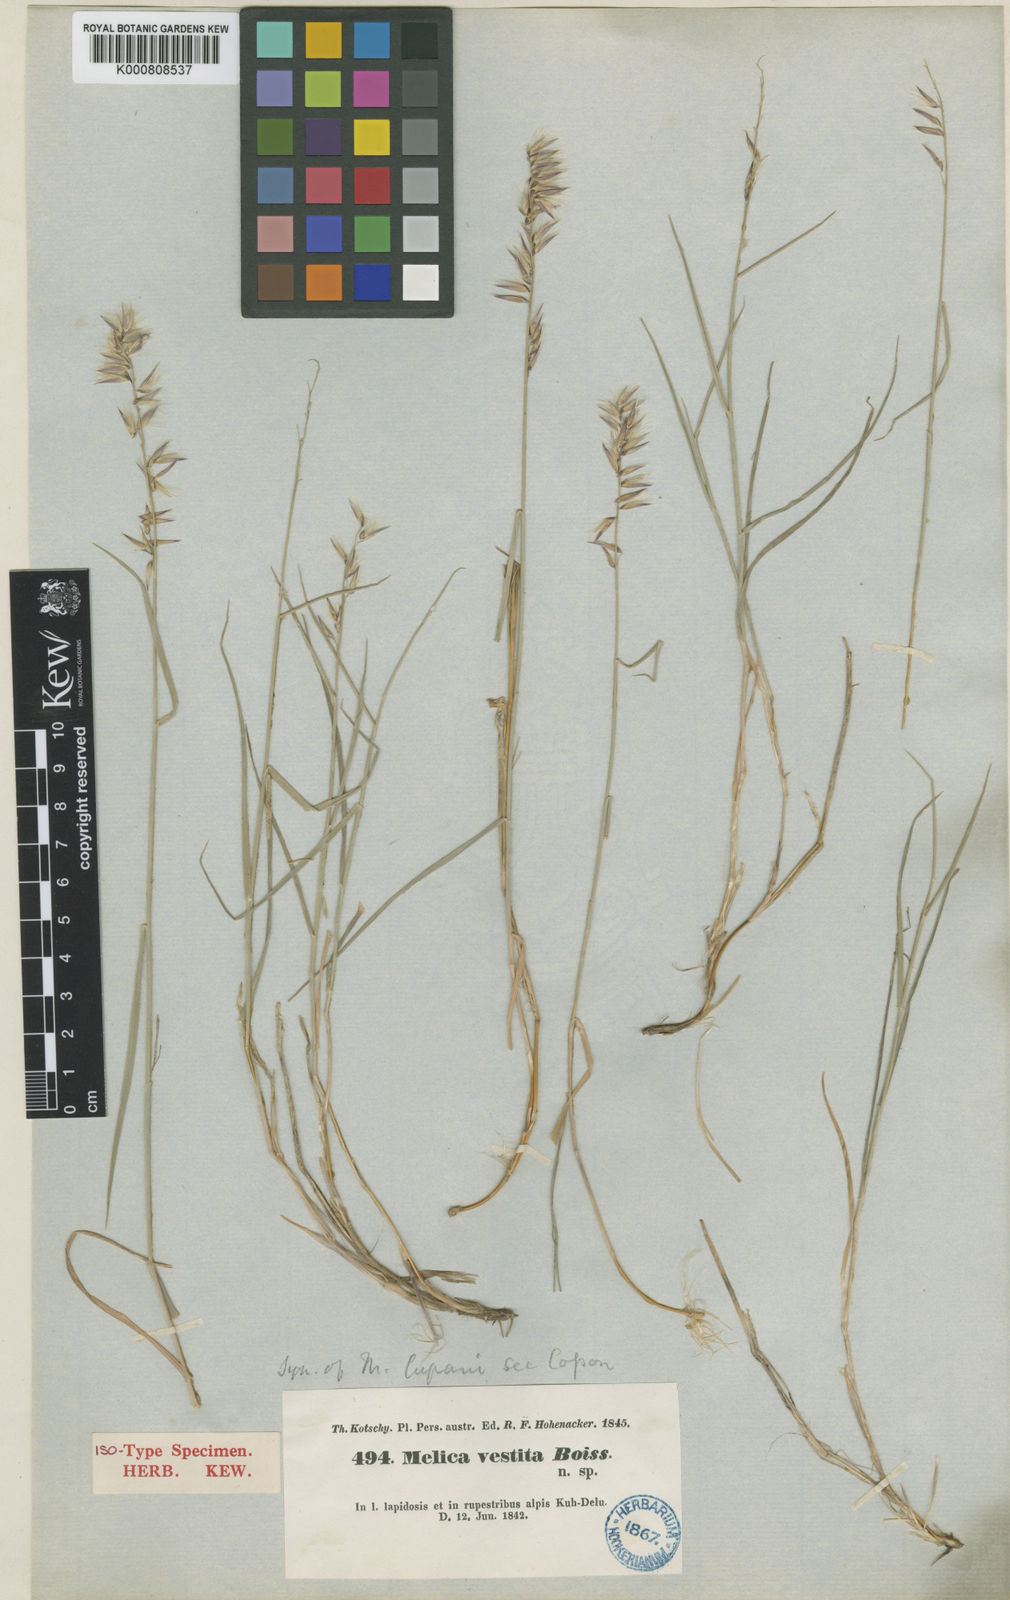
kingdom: Plantae
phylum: Tracheophyta
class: Liliopsida
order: Poales
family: Poaceae
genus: Melica
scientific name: Melica persica
